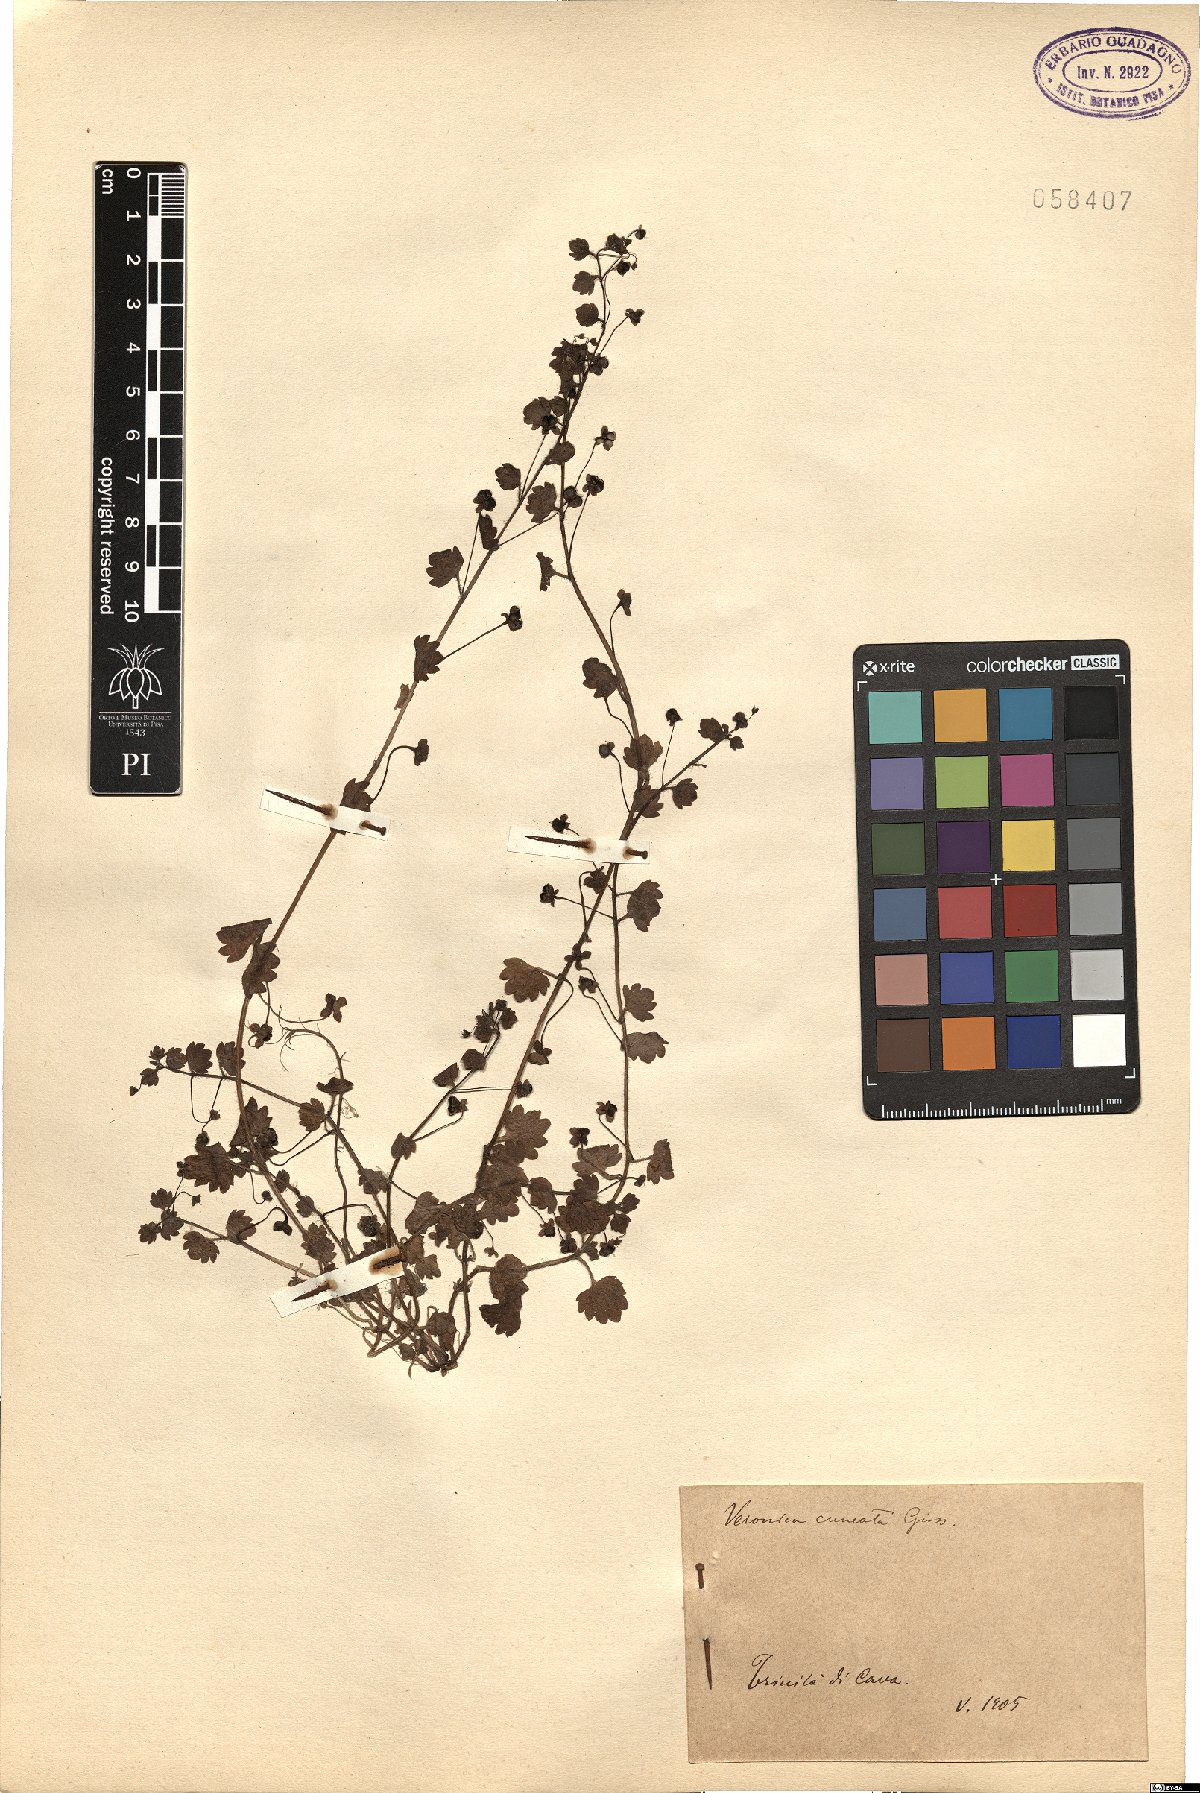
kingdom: Plantae
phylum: Tracheophyta
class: Magnoliopsida
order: Lamiales
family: Plantaginaceae
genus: Veronica
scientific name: Veronica cymbalaria
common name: Pale speedwell
